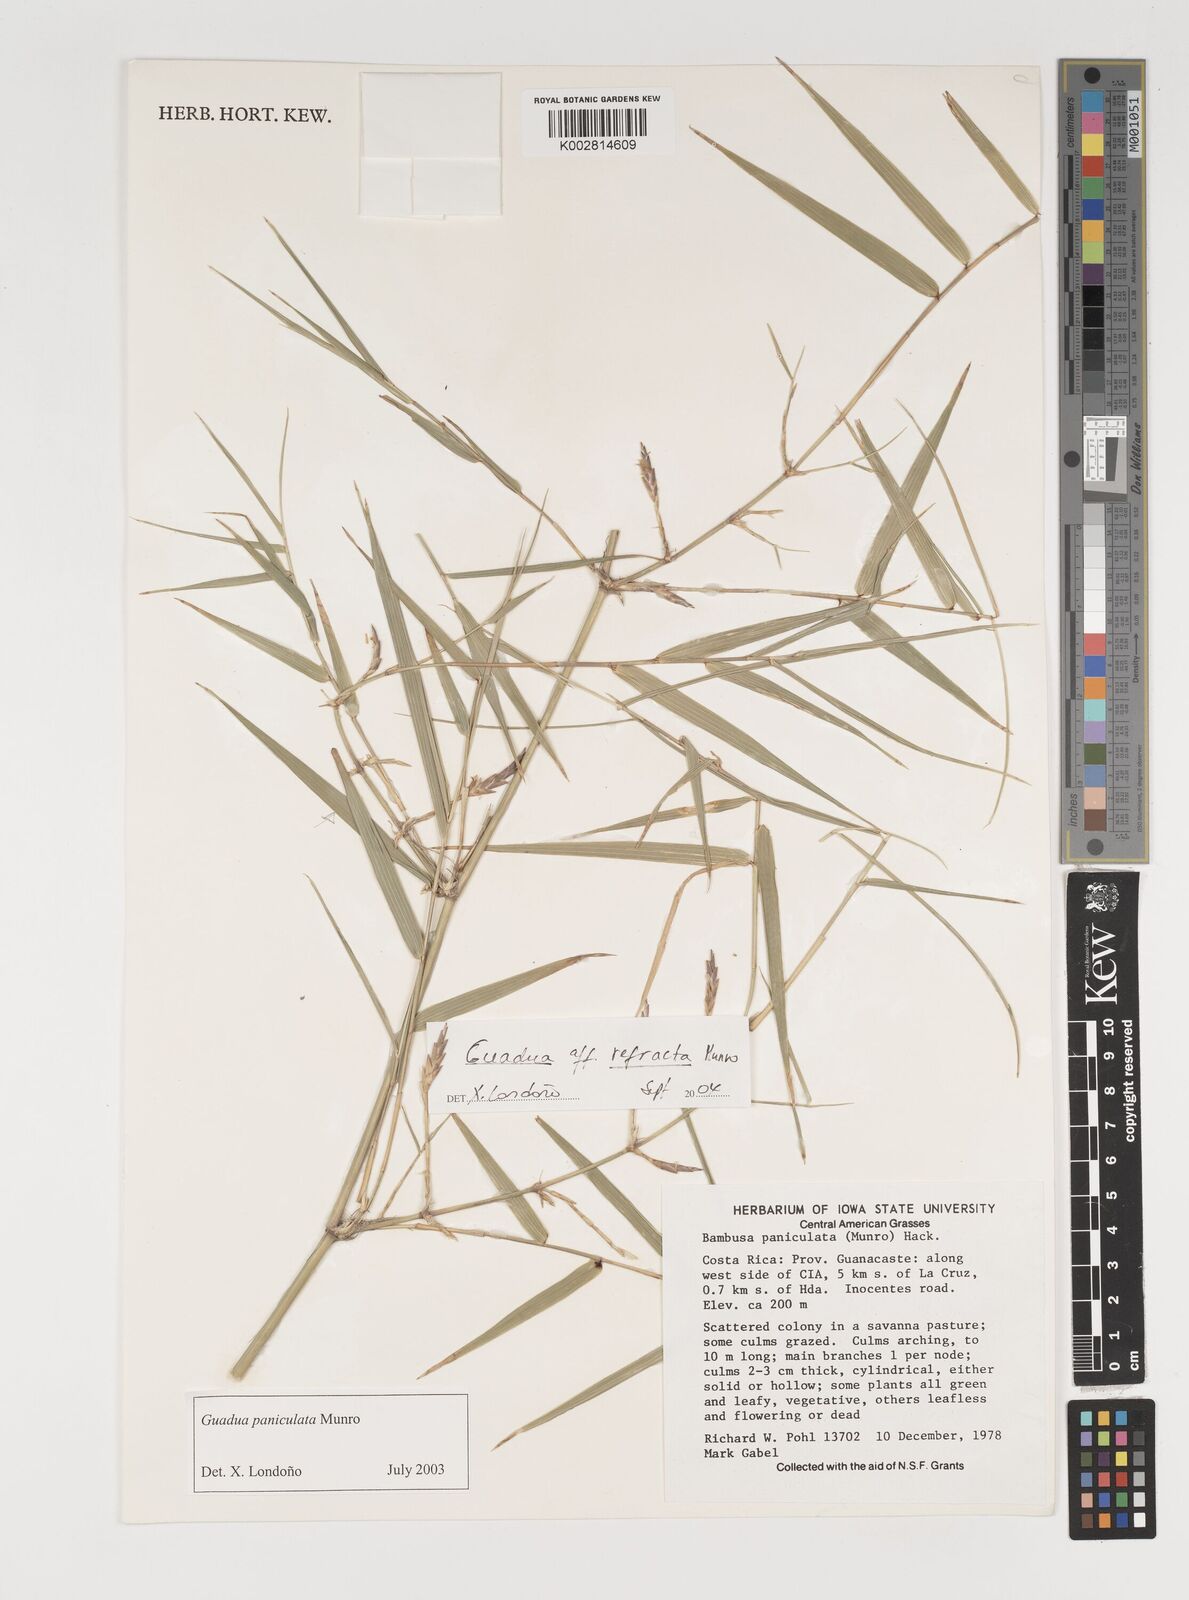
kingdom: Plantae
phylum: Tracheophyta
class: Liliopsida
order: Poales
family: Poaceae
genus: Guadua
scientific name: Guadua
